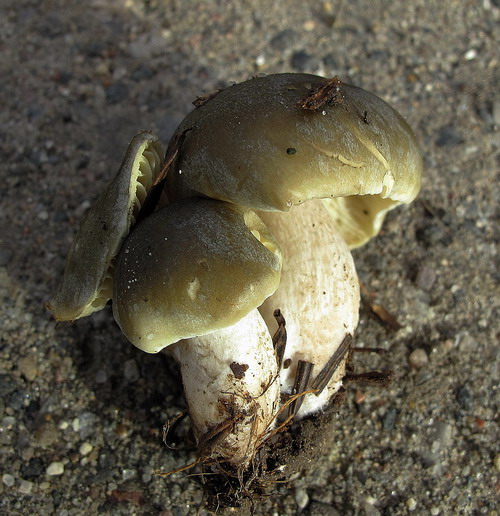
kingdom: Fungi
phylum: Basidiomycota
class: Agaricomycetes
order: Agaricales
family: Tricholomataceae
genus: Tricholoma
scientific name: Tricholoma rapipes
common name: olivengul ridderhat
